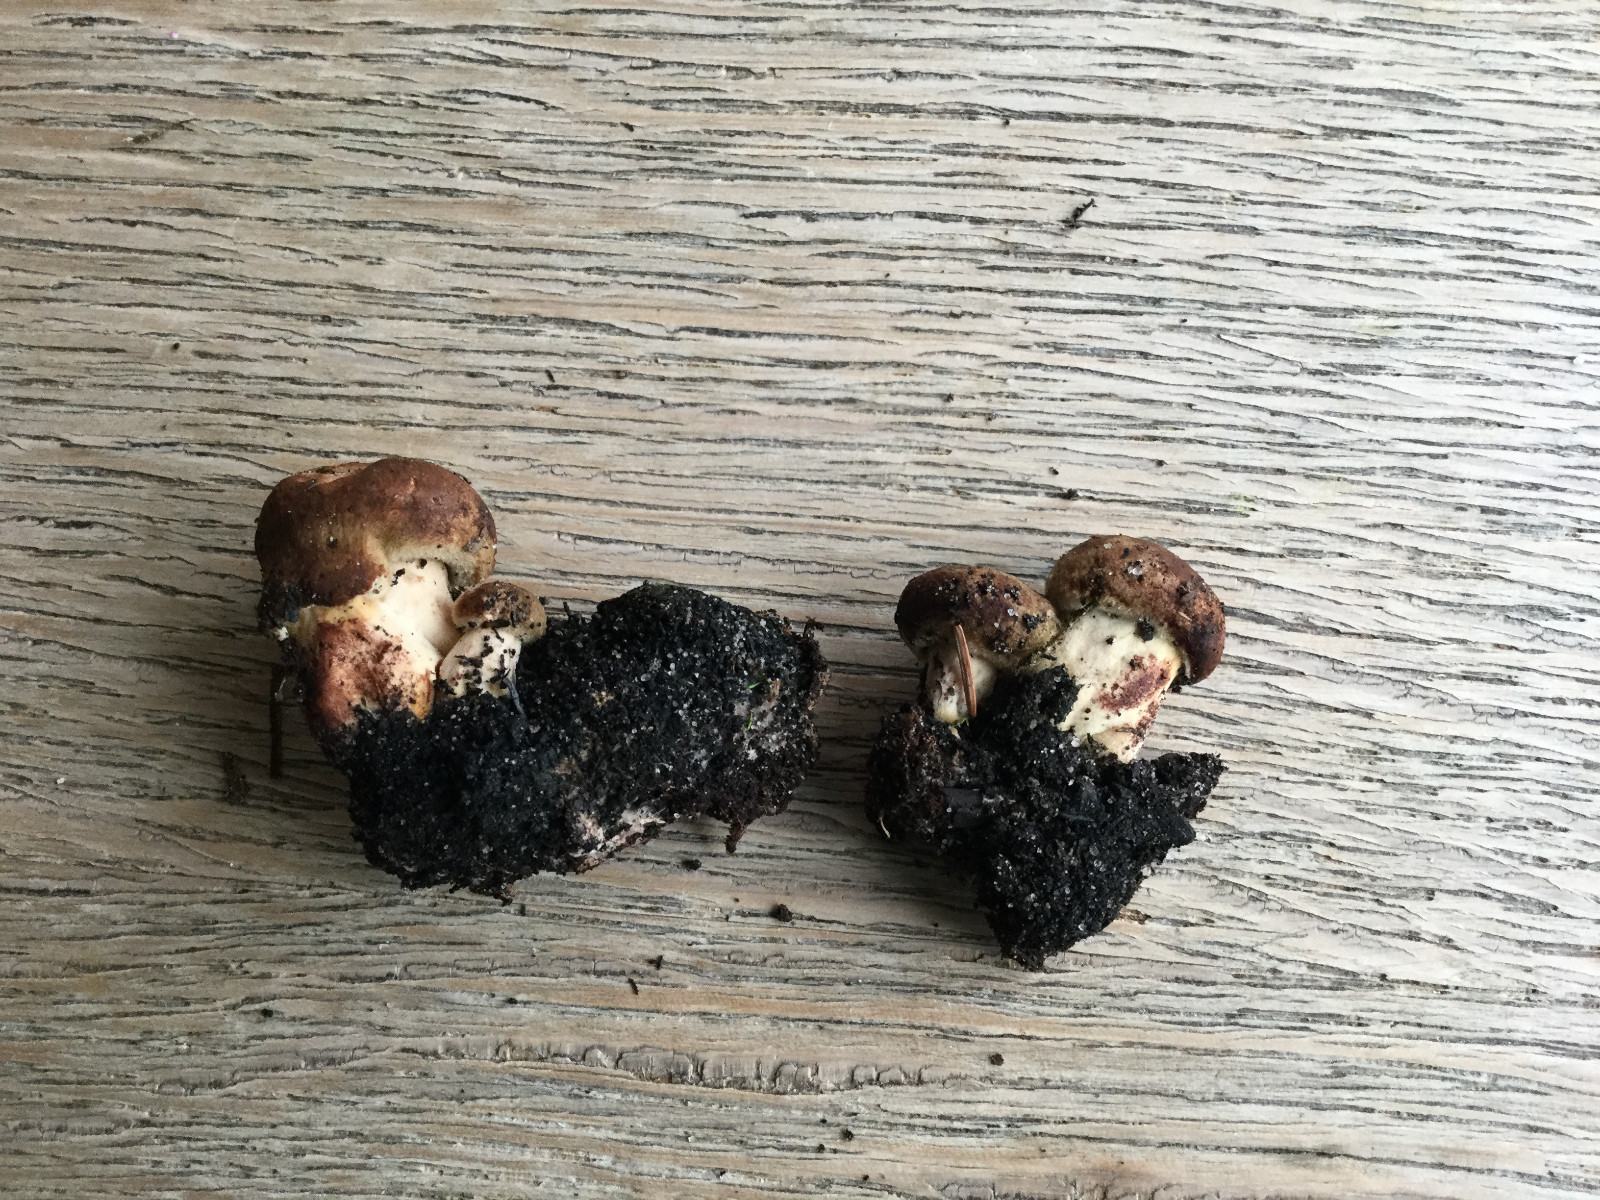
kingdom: Fungi
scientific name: Fungi
